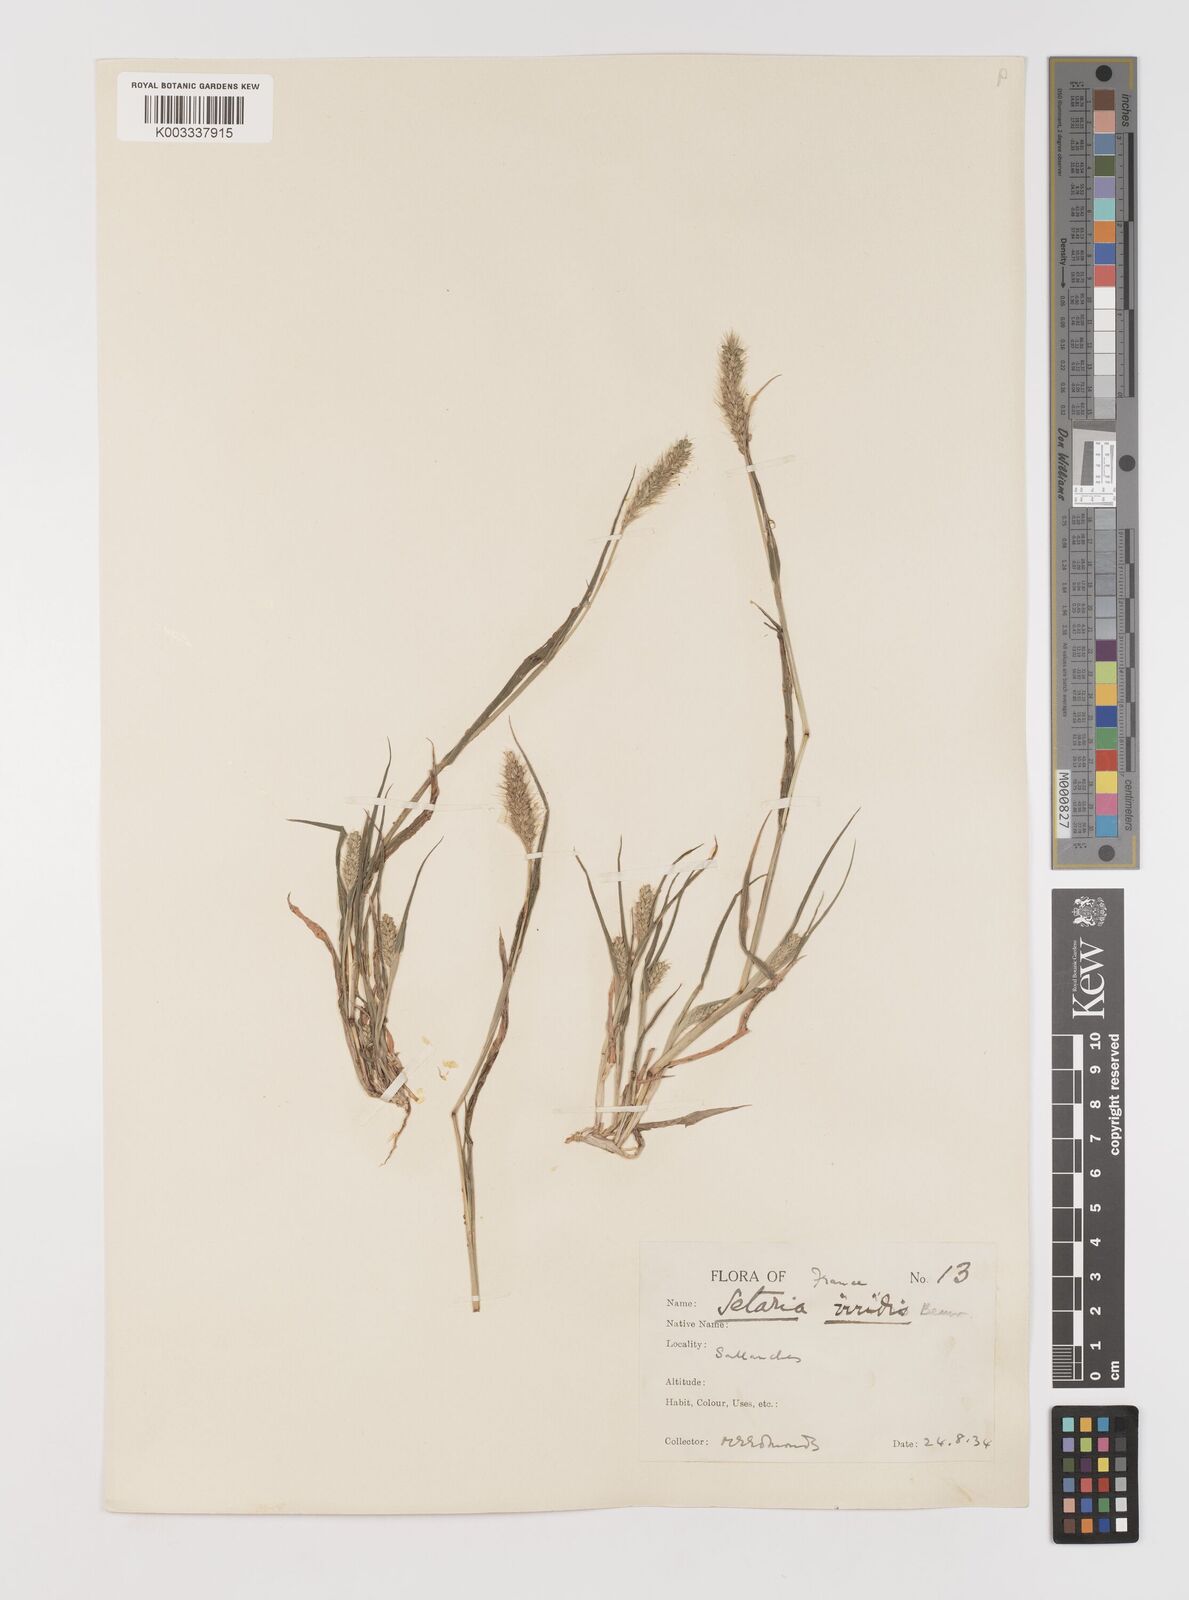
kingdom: Plantae
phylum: Tracheophyta
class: Liliopsida
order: Poales
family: Poaceae
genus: Setaria
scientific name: Setaria viridis
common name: Green bristlegrass
